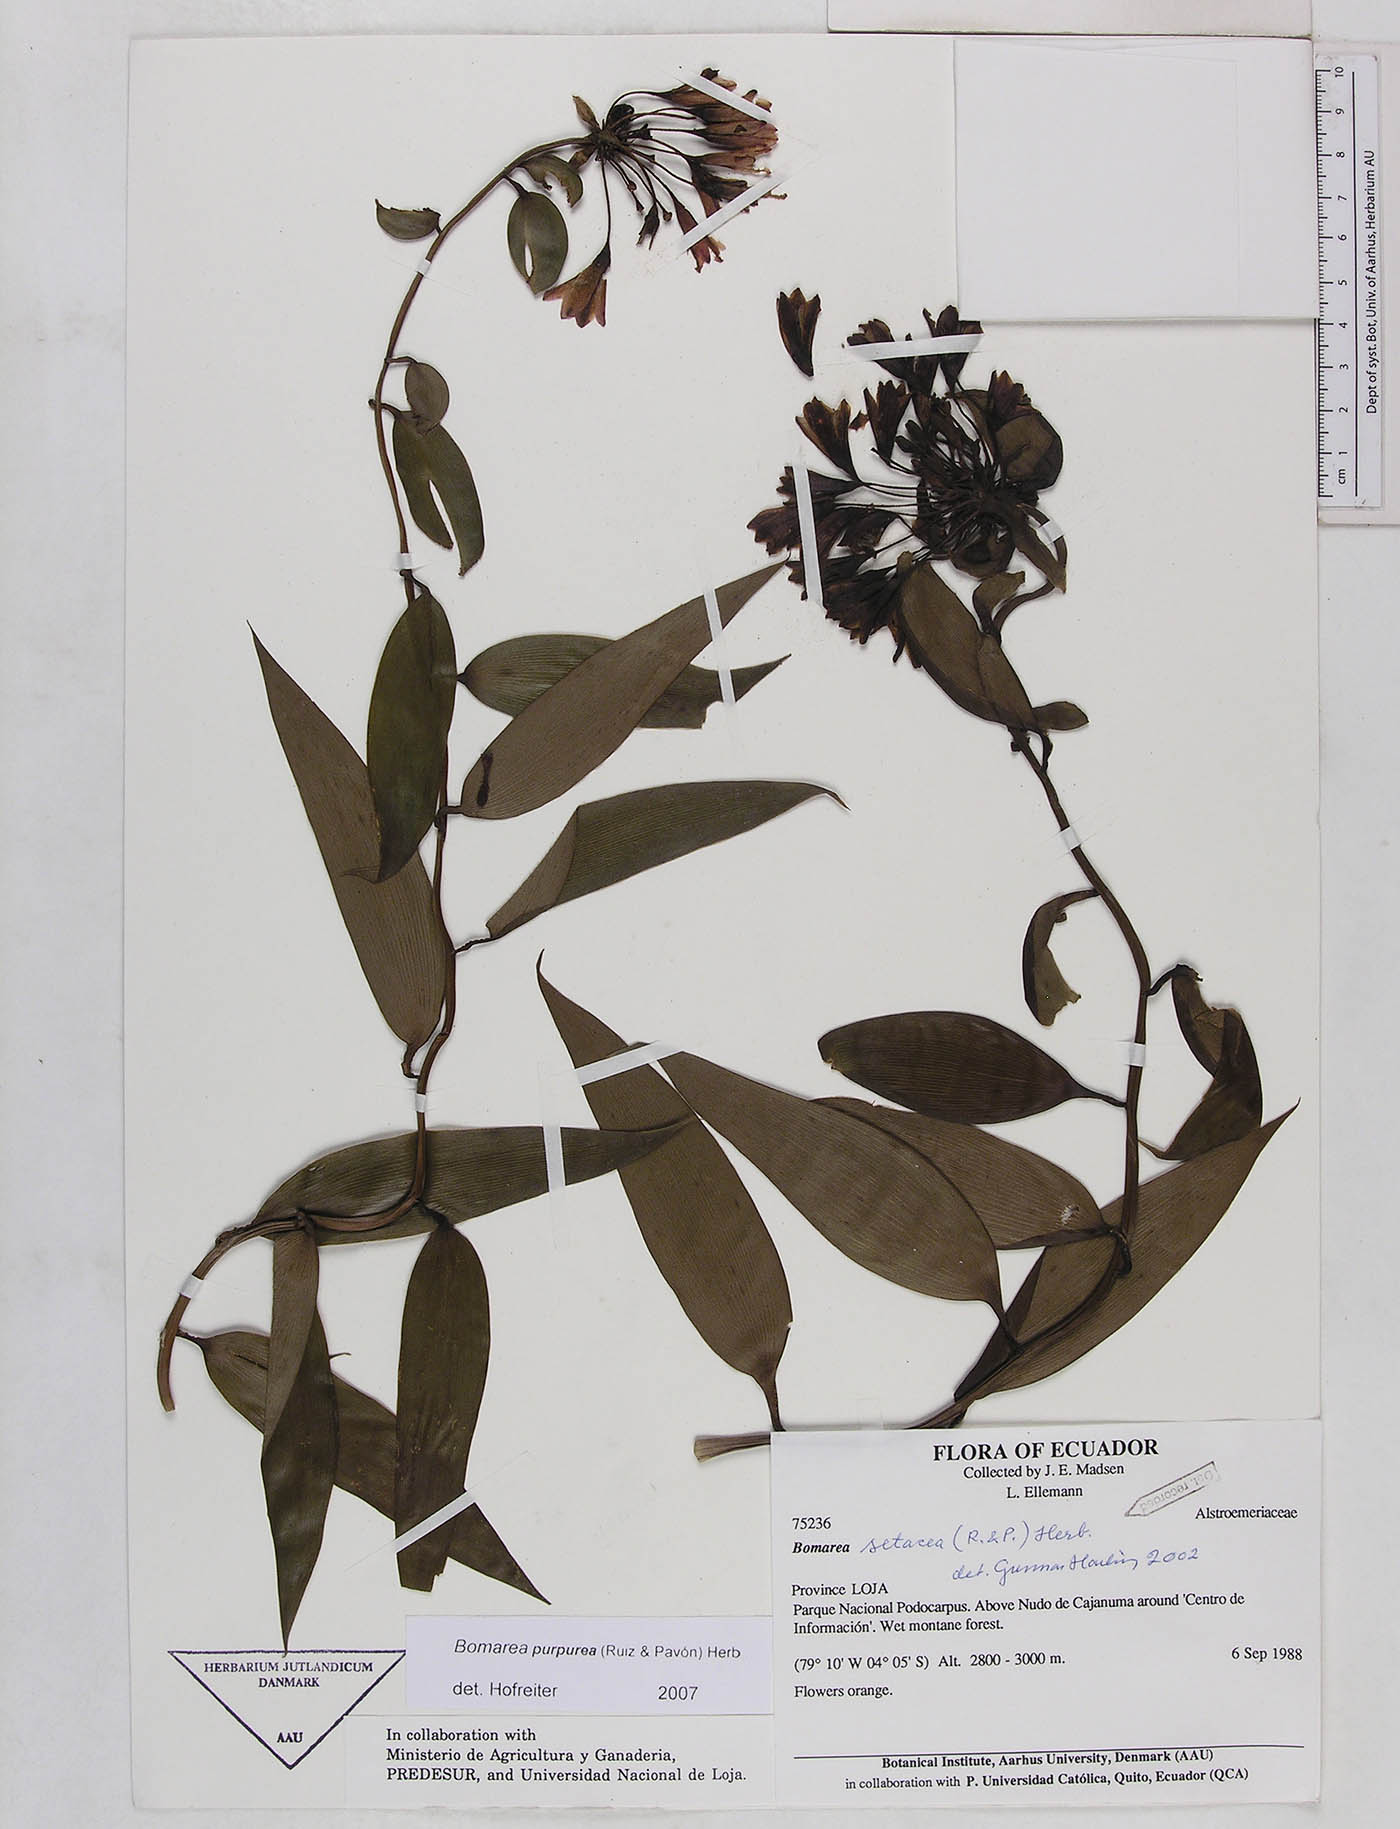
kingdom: Plantae
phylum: Tracheophyta
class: Liliopsida
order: Liliales
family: Alstroemeriaceae
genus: Bomarea
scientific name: Bomarea purpurea
